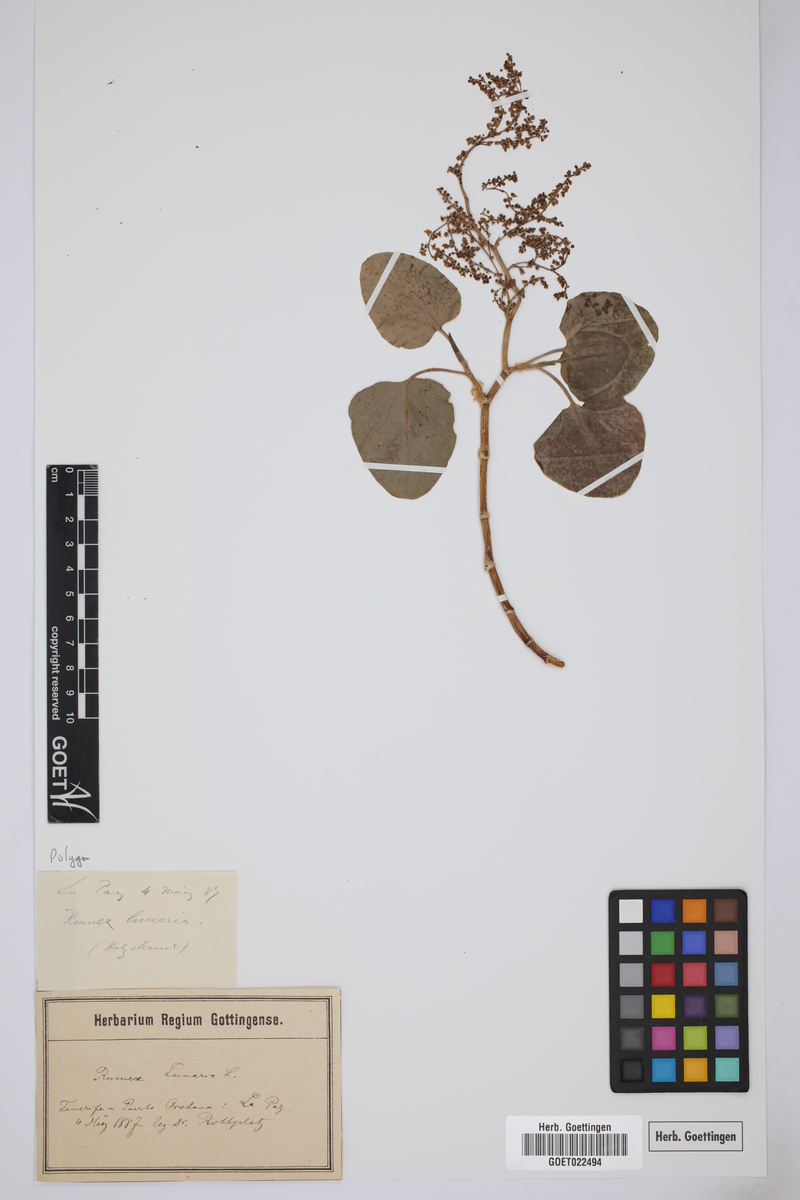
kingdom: Plantae
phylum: Tracheophyta
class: Magnoliopsida
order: Caryophyllales
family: Polygonaceae
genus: Rumex
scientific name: Rumex lunaria
